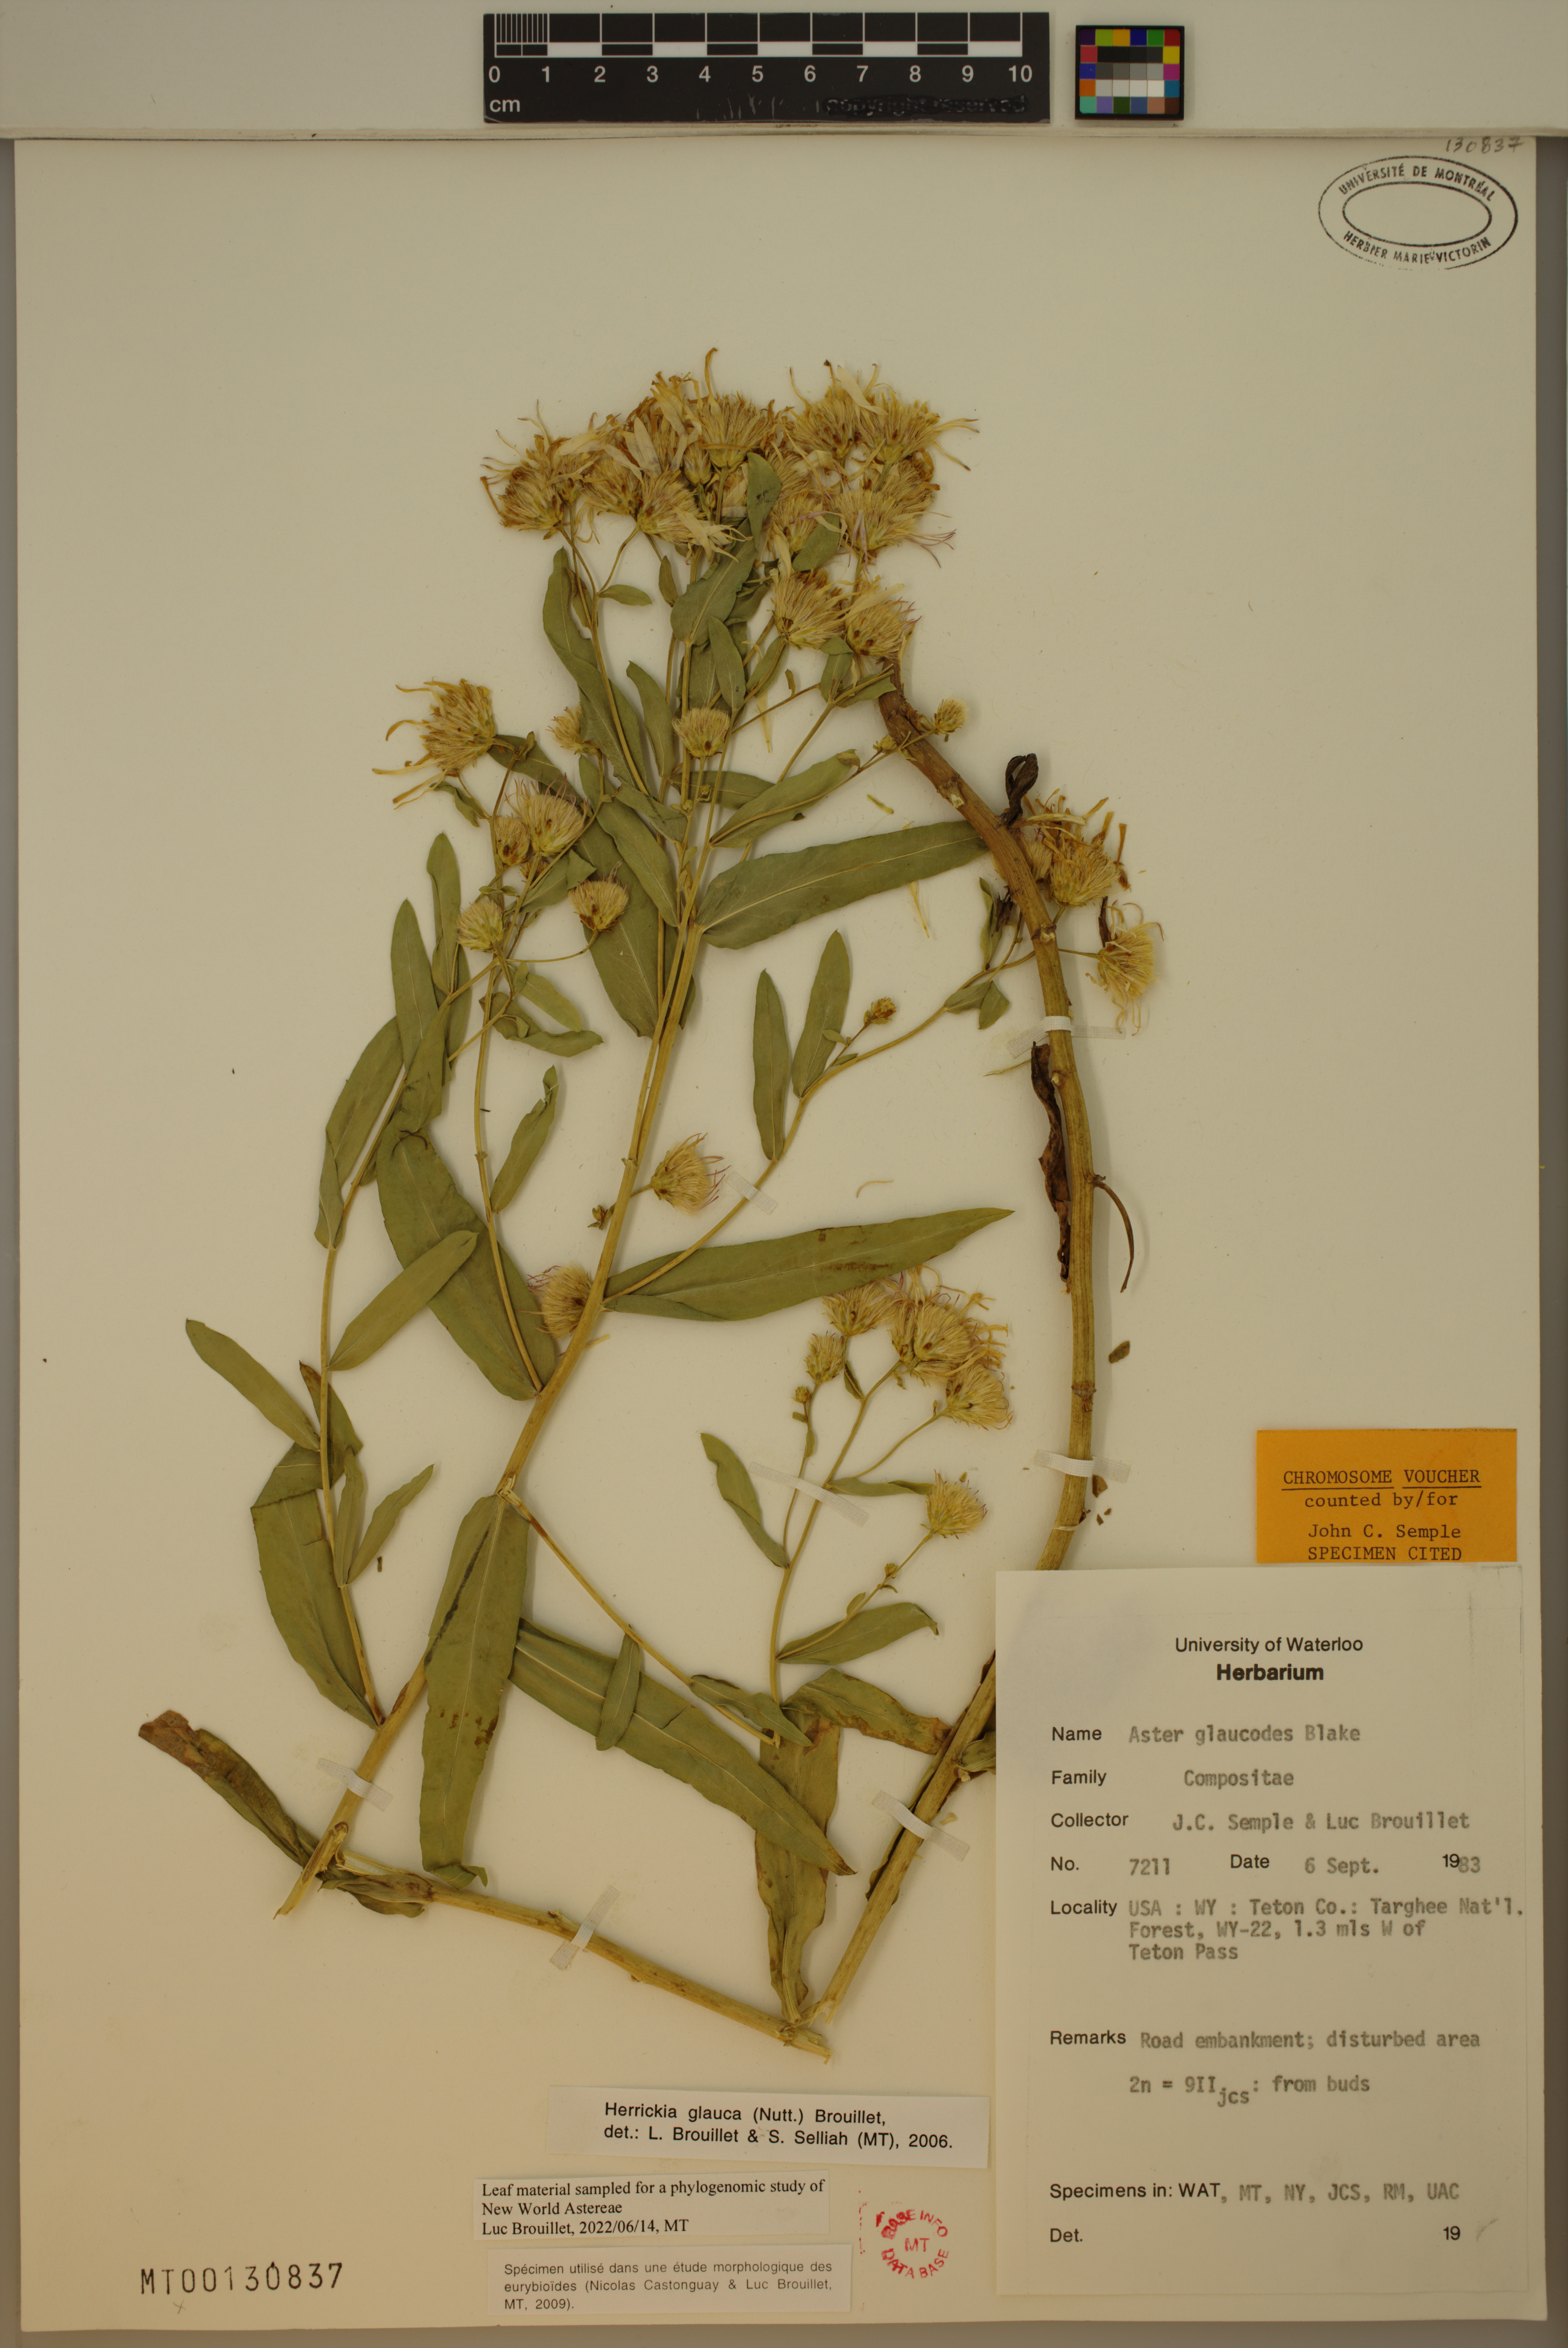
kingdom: Plantae
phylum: Tracheophyta
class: Magnoliopsida
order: Asterales
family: Asteraceae
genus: Eurybia
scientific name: Eurybia glauca
